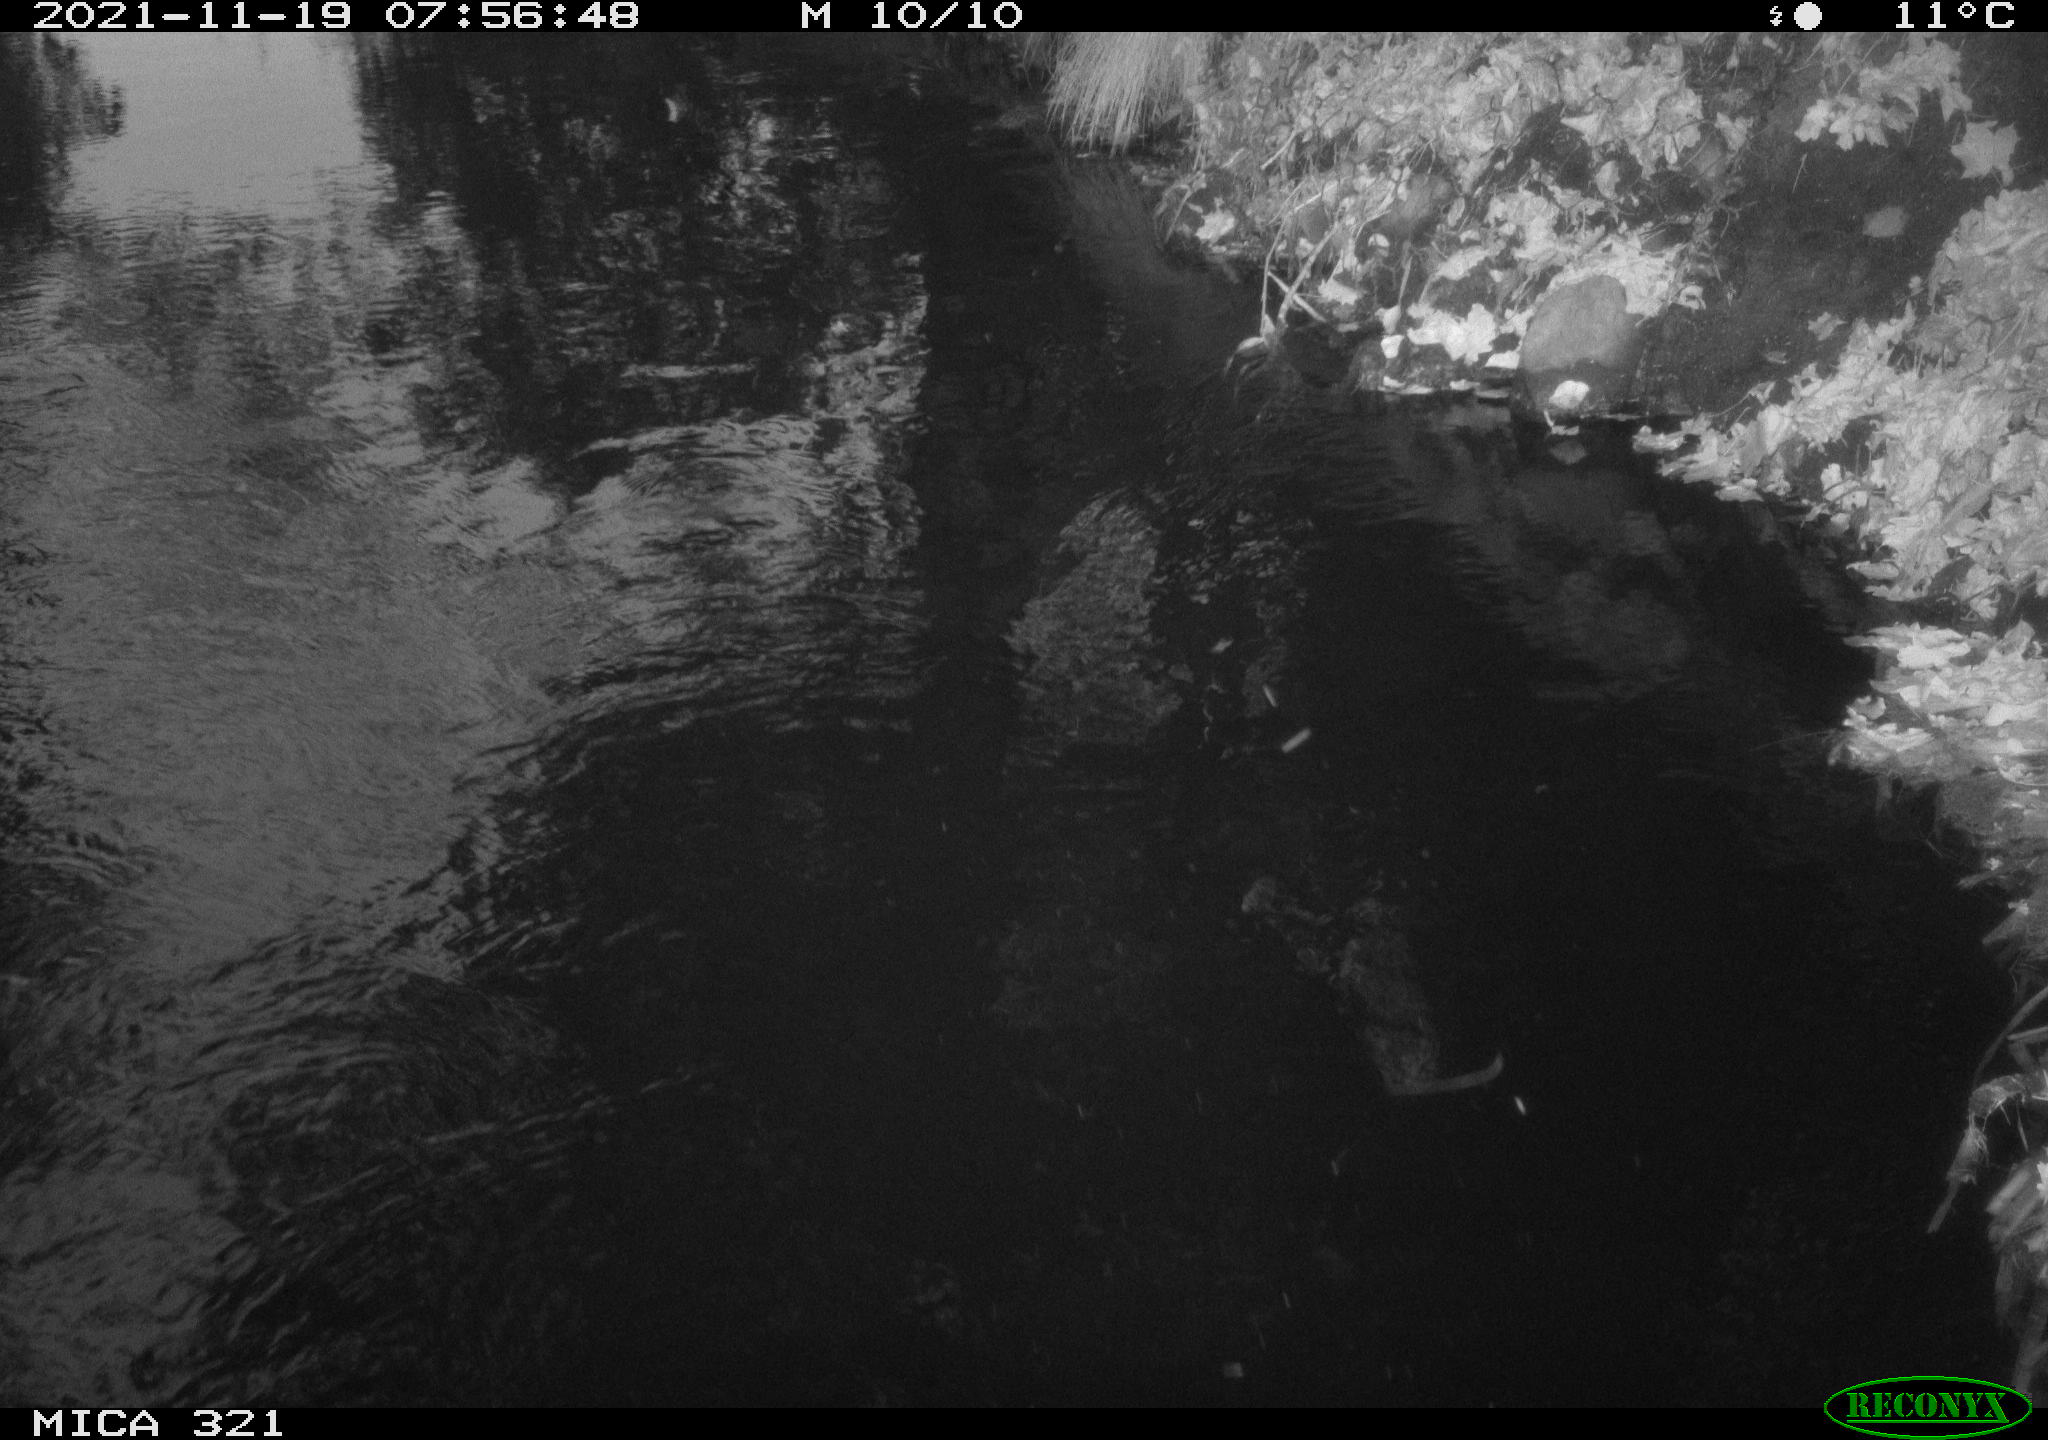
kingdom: Animalia
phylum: Chordata
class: Aves
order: Anseriformes
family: Anatidae
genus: Anas
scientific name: Anas platyrhynchos
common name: Mallard
